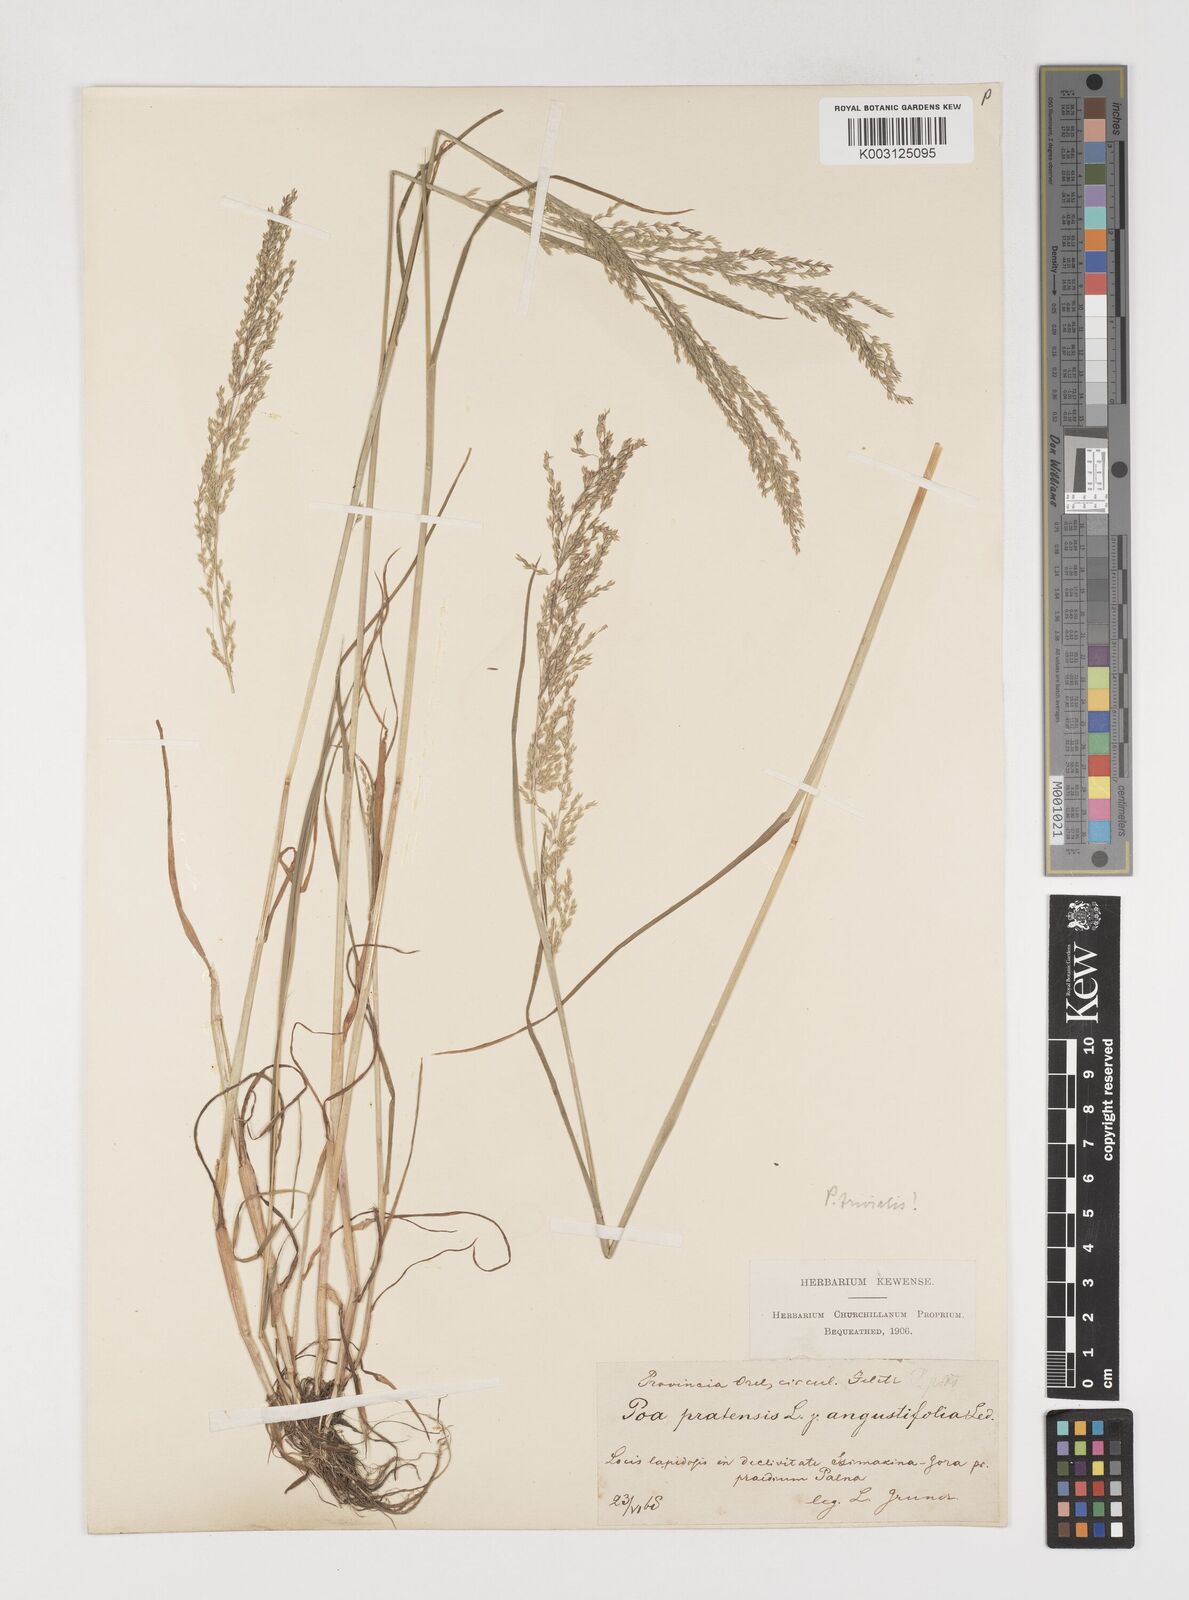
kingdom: Plantae
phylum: Tracheophyta
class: Liliopsida
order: Poales
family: Poaceae
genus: Poa
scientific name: Poa trivialis
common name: Rough bluegrass
